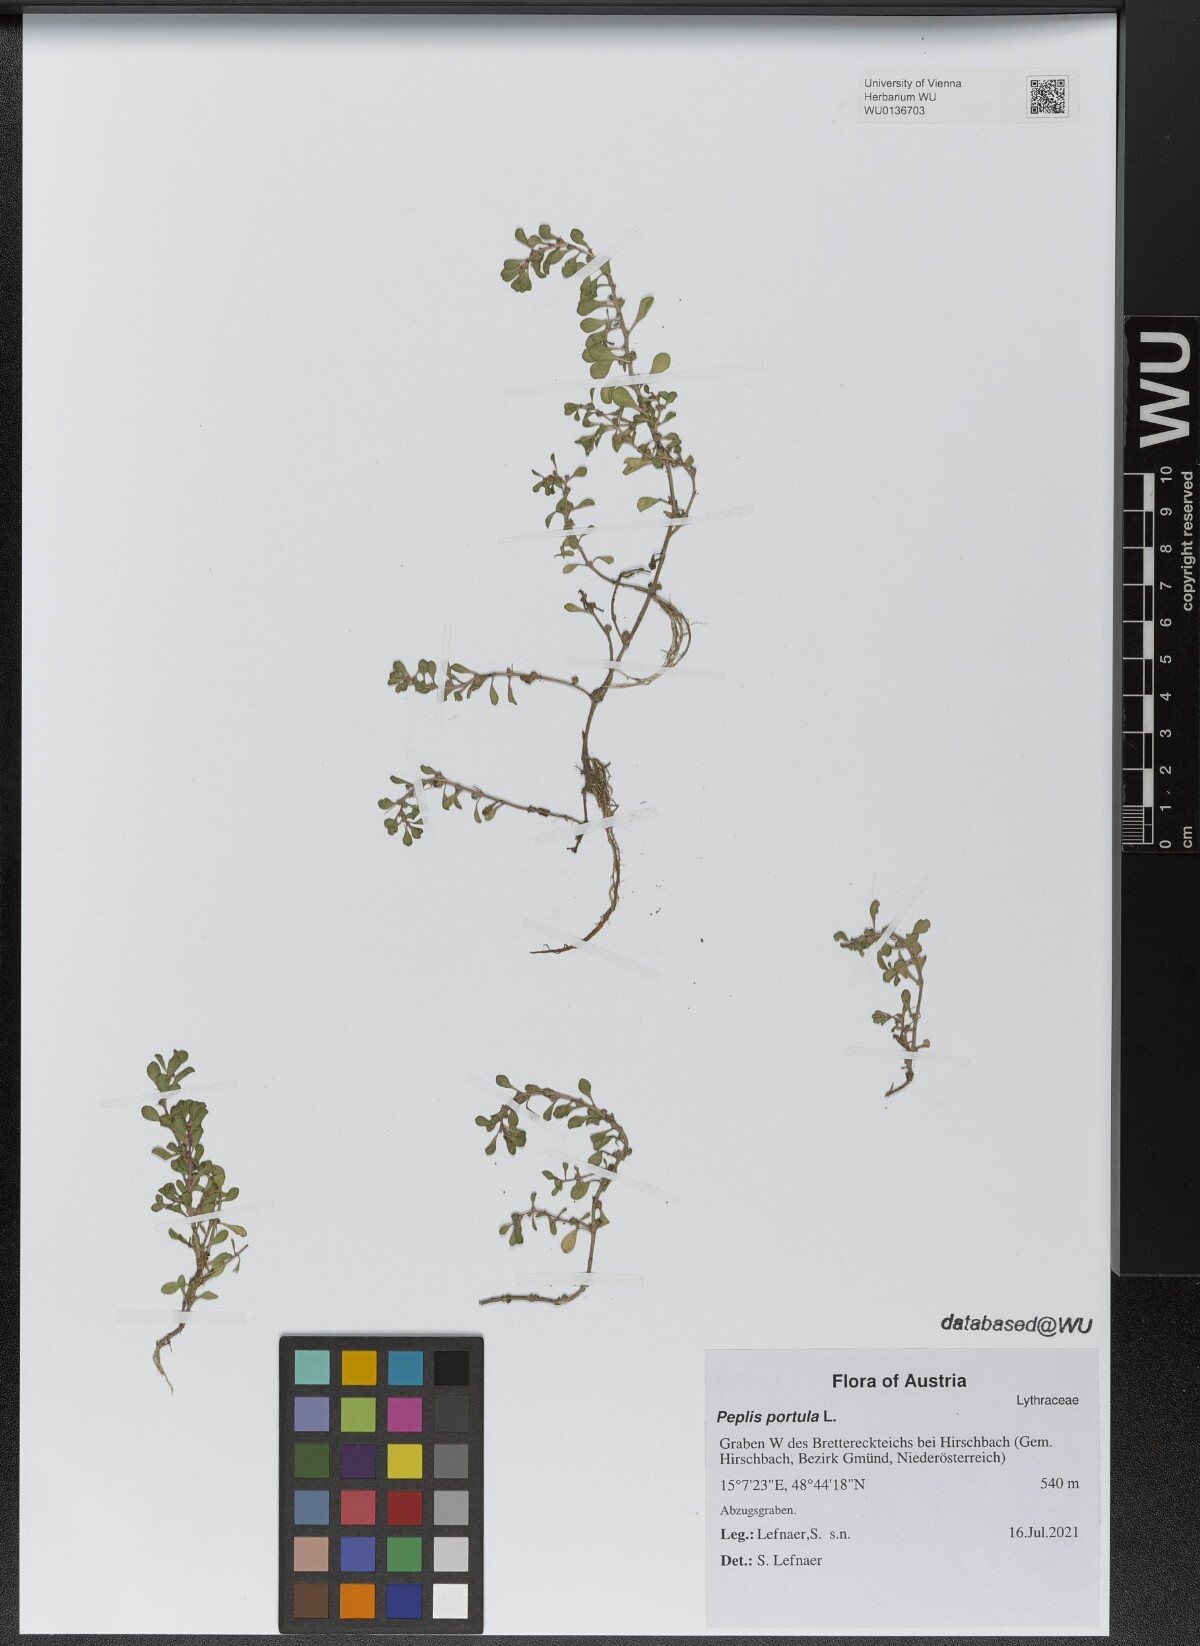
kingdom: Plantae
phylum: Tracheophyta
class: Magnoliopsida
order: Myrtales
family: Lythraceae
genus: Lythrum
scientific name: Lythrum portula
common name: Water purslane
